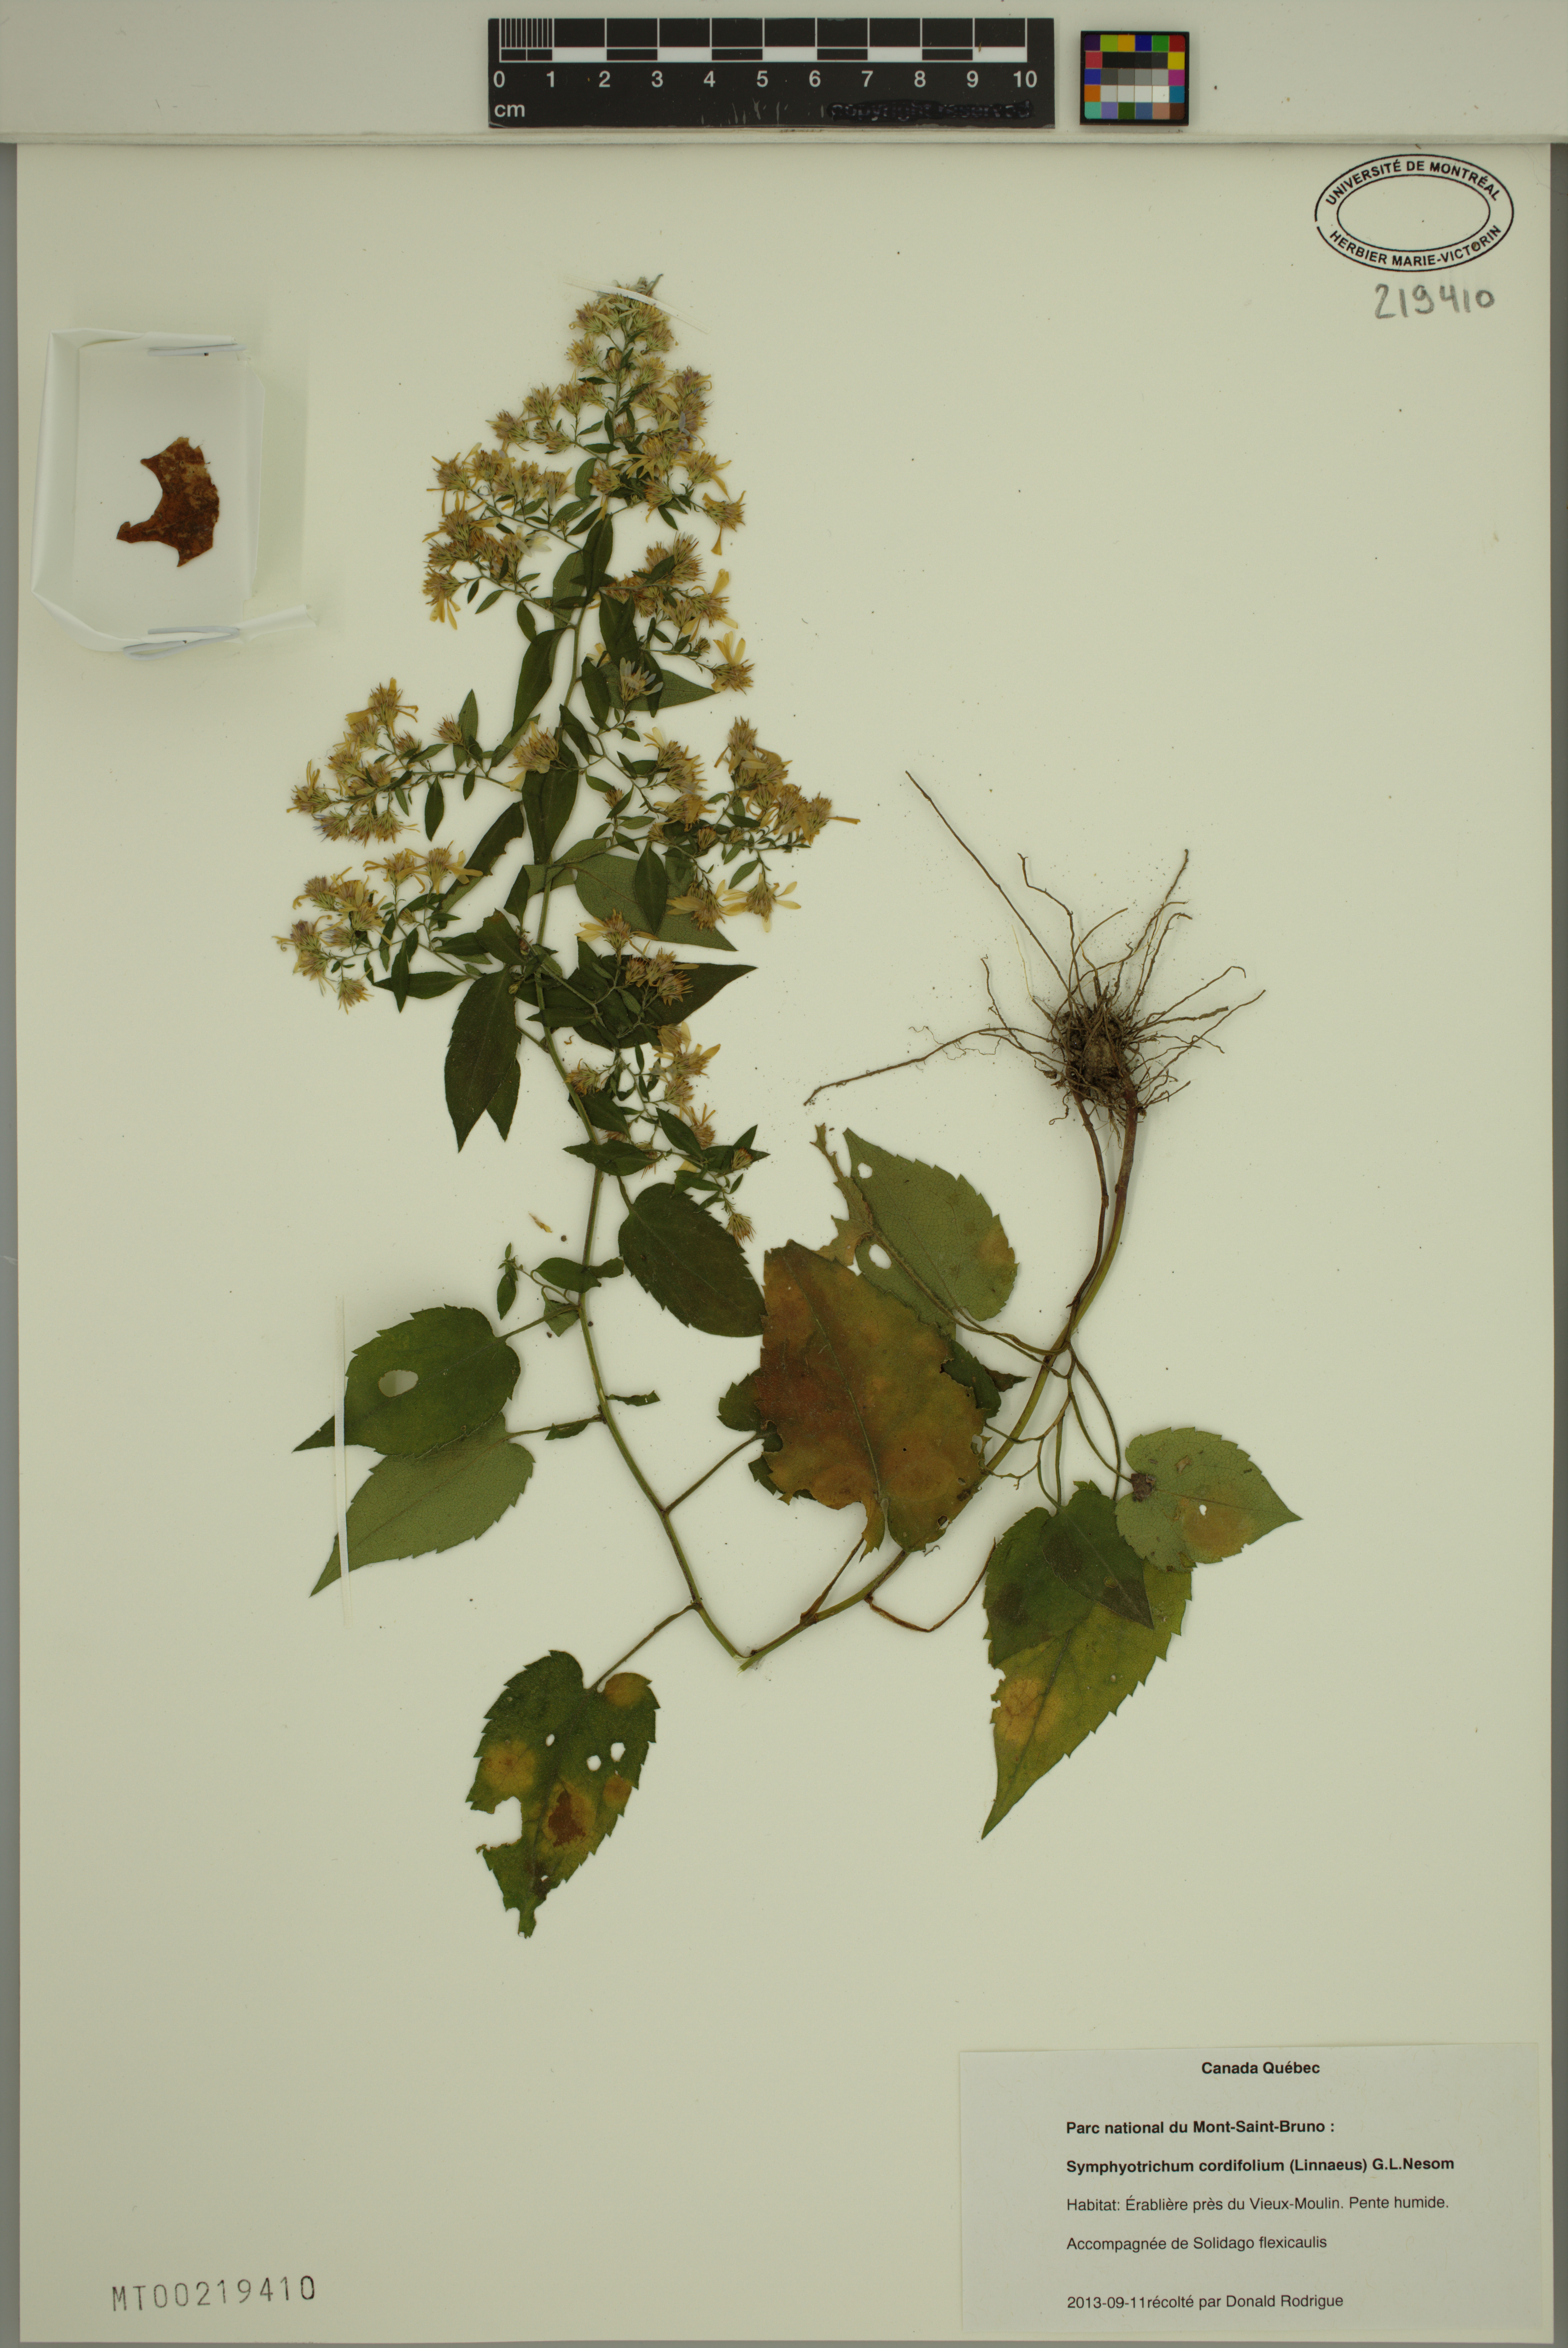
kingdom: Plantae
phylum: Tracheophyta
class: Magnoliopsida
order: Asterales
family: Asteraceae
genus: Symphyotrichum
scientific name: Symphyotrichum cordifolium
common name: Beeweed
